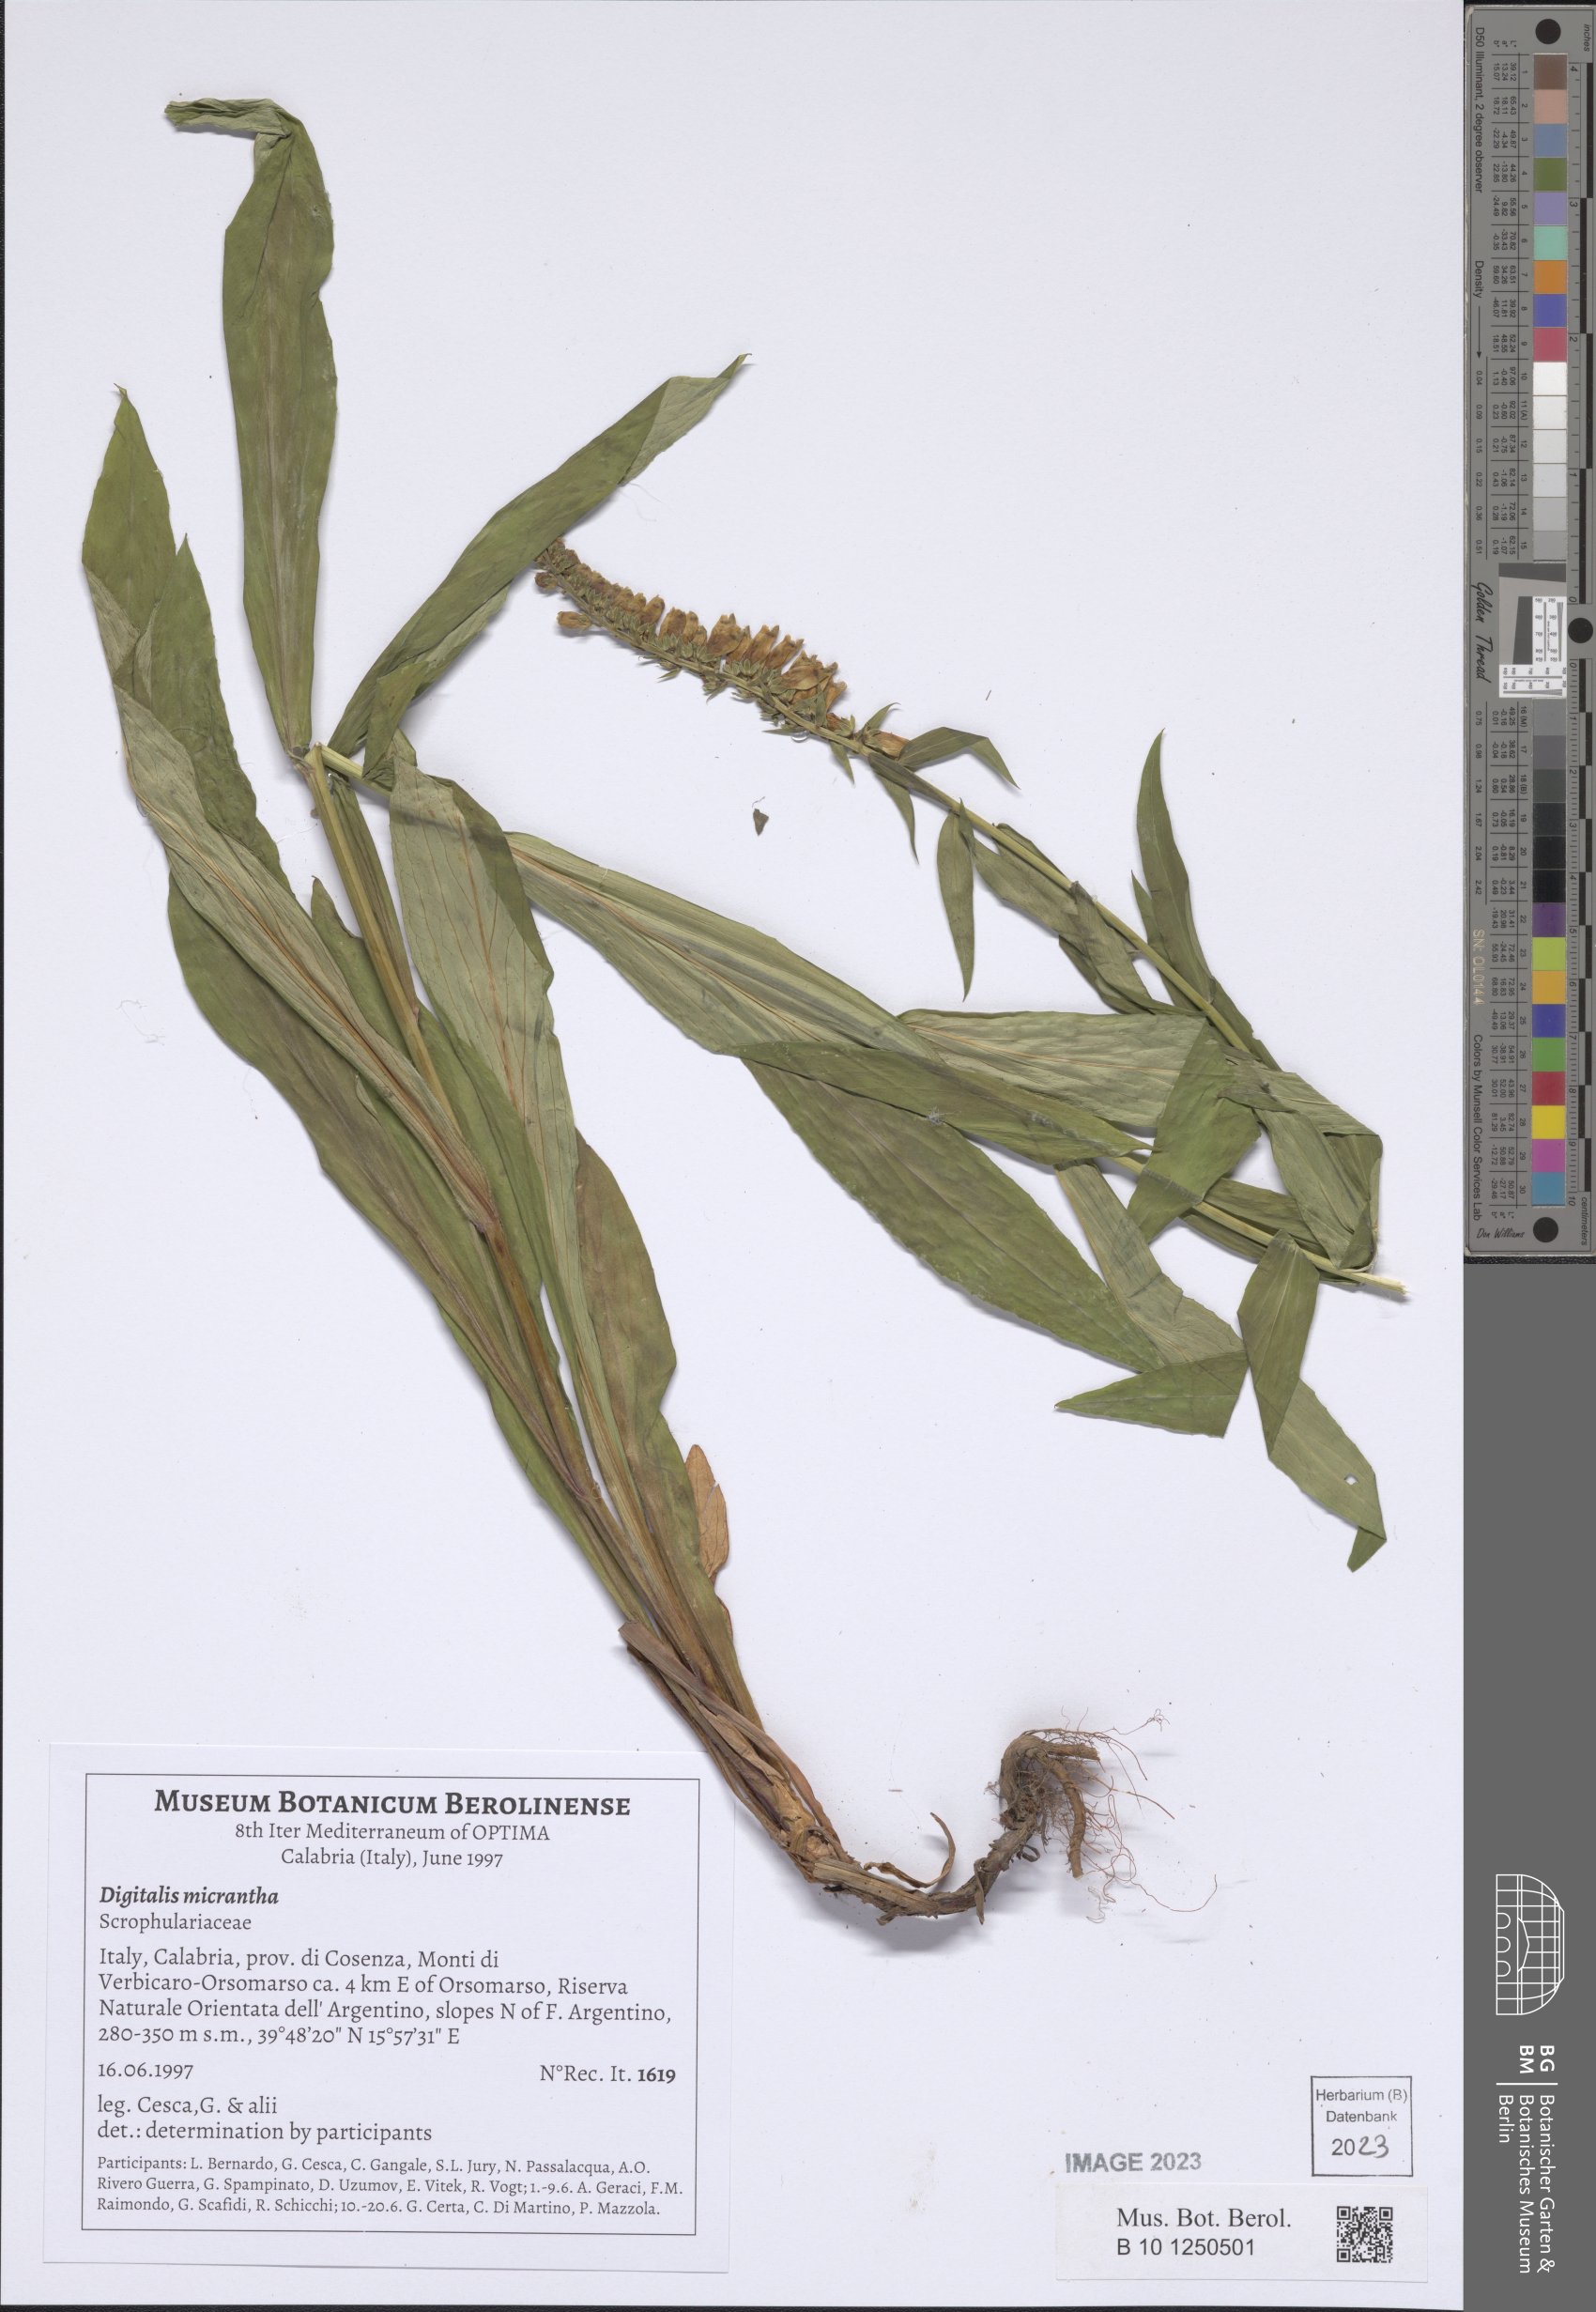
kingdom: Plantae
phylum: Tracheophyta
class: Magnoliopsida
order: Lamiales
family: Plantaginaceae
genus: Digitalis
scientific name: Digitalis lutea
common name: Straw foxglove
